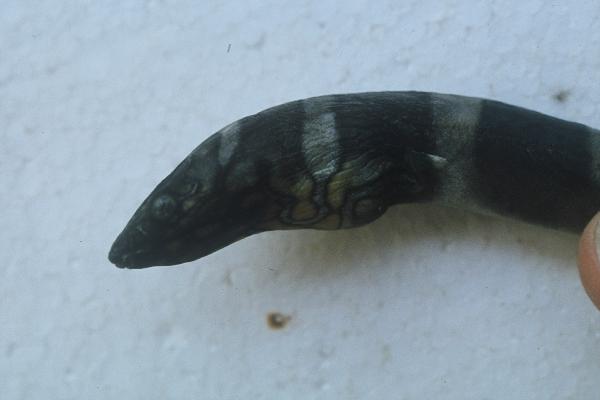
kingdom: Animalia
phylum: Chordata
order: Anguilliformes
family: Ophichthidae
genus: Leiuranus
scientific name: Leiuranus semicinctus
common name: Saddled snake eel
